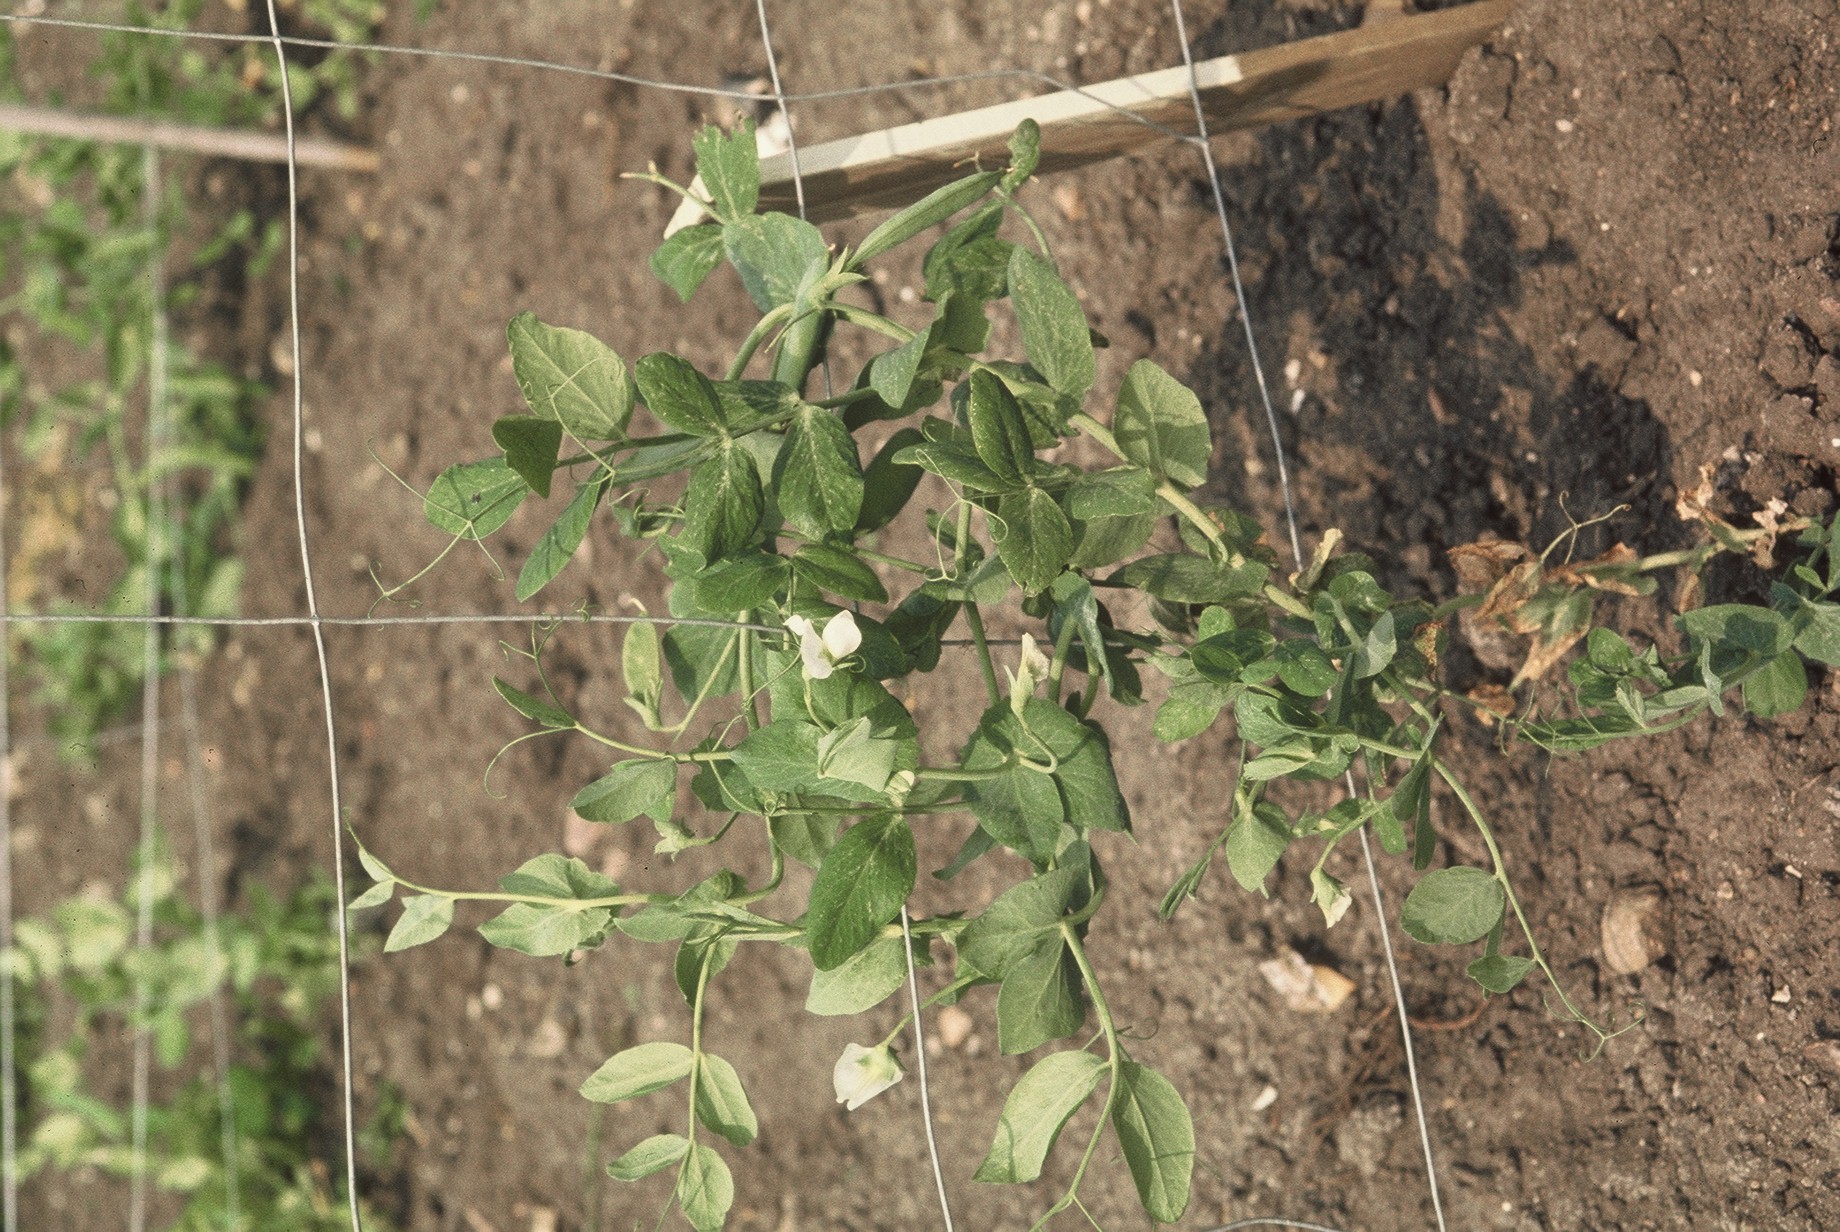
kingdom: Plantae
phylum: Tracheophyta
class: Magnoliopsida
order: Fabales
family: Fabaceae
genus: Lathyrus
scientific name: Lathyrus oleraceus
